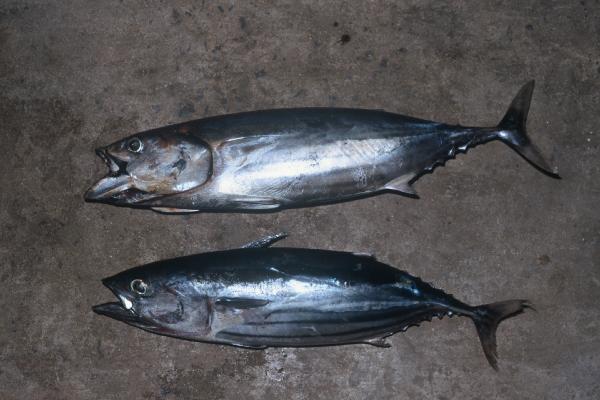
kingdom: Animalia
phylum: Chordata
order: Perciformes
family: Scombridae
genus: Katsuwonus
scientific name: Katsuwonus pelamis
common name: Skipjack tuna
